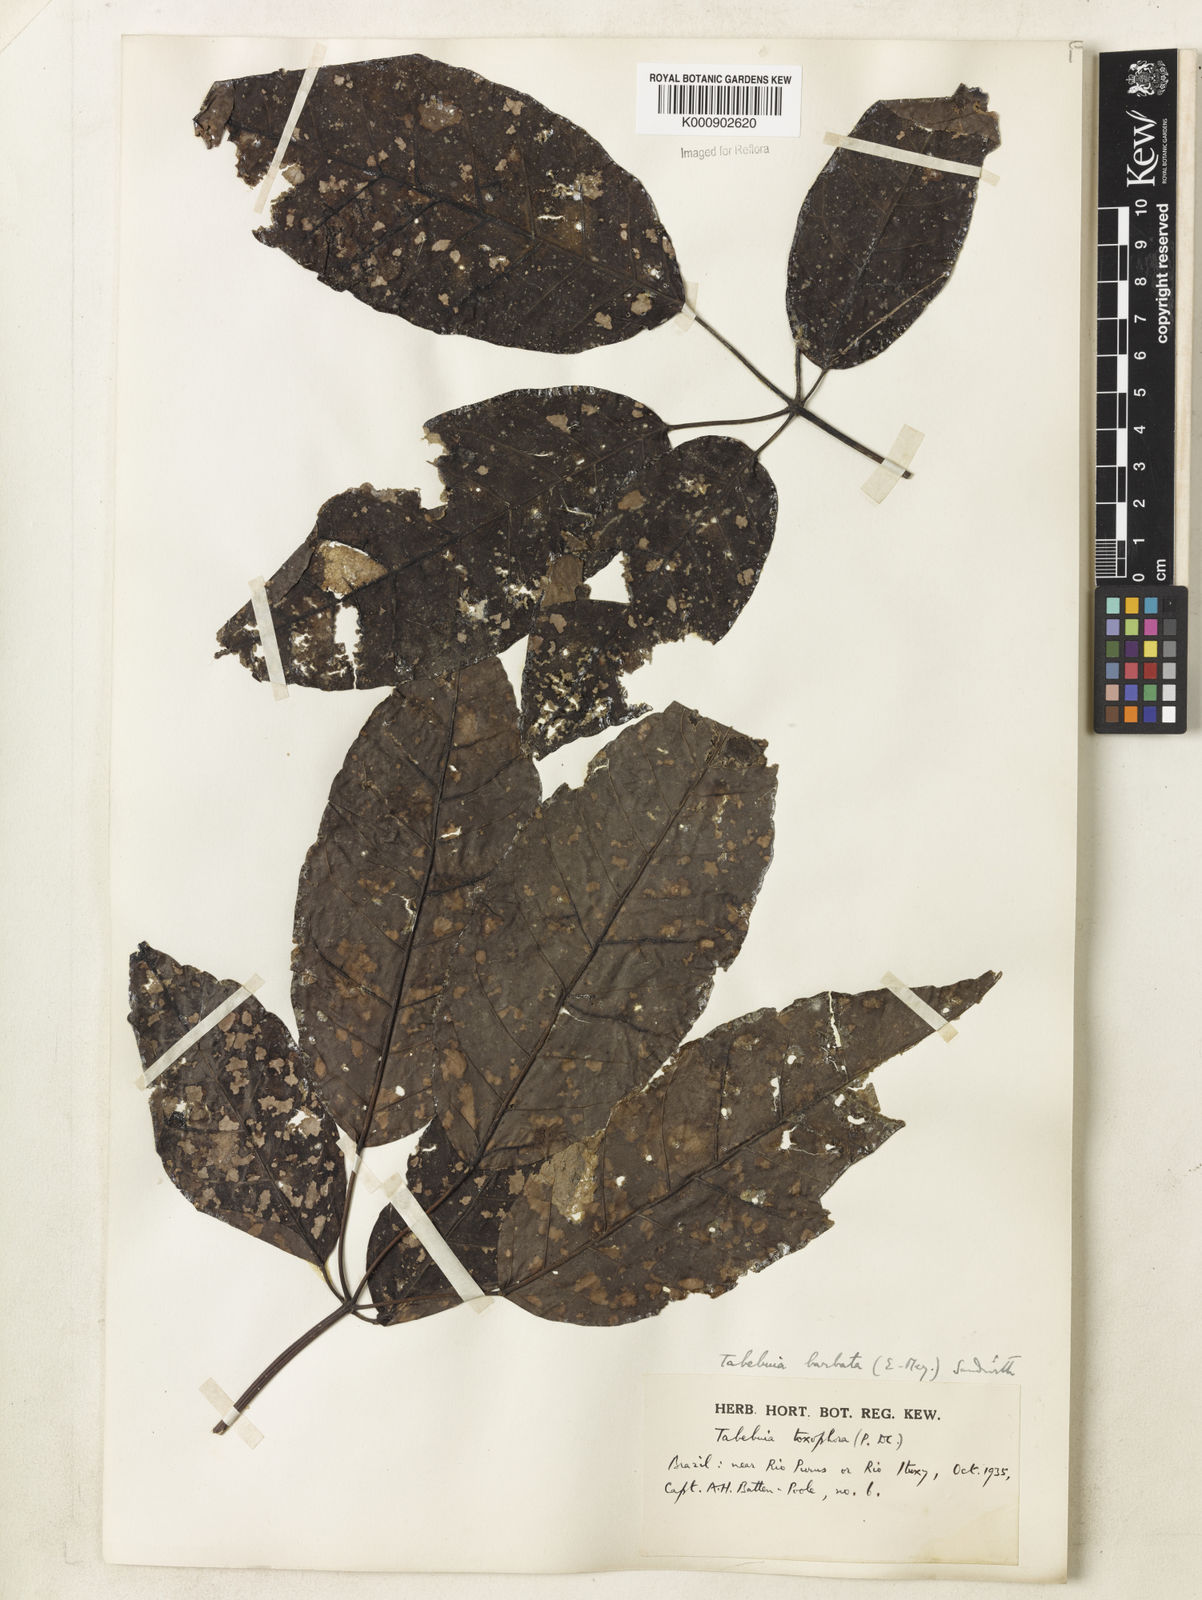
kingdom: Plantae
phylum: Tracheophyta
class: Magnoliopsida
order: Lamiales
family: Bignoniaceae
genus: Handroanthus
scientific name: Handroanthus barbatus
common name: Trumpet trees
